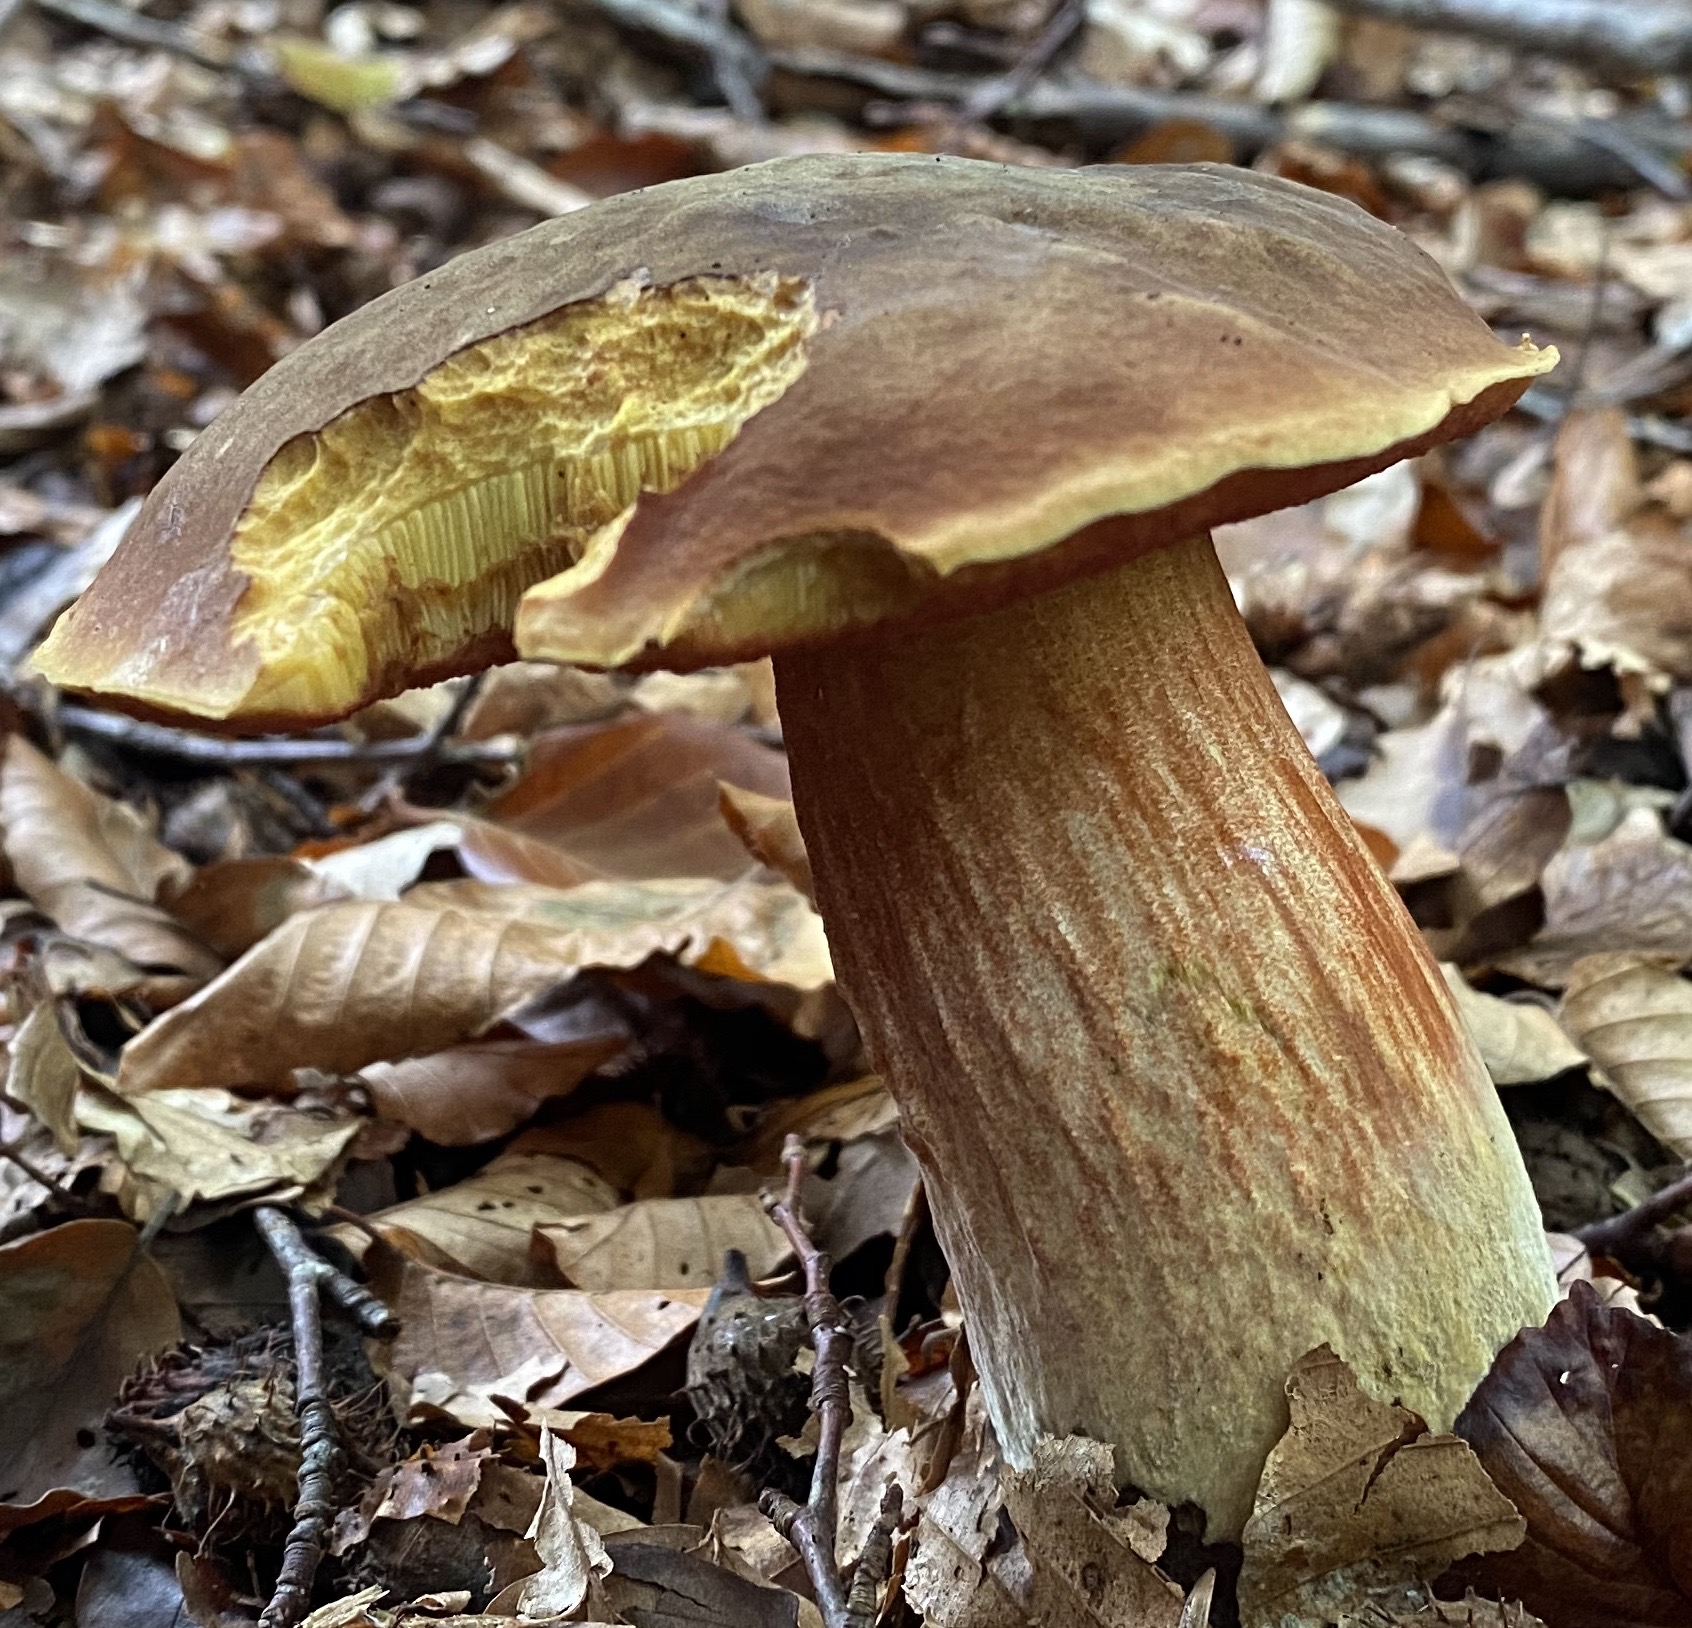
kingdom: Fungi
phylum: Basidiomycota
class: Agaricomycetes
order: Boletales
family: Boletaceae
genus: Neoboletus
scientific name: Neoboletus erythropus
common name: punktstokket indigorørhat
